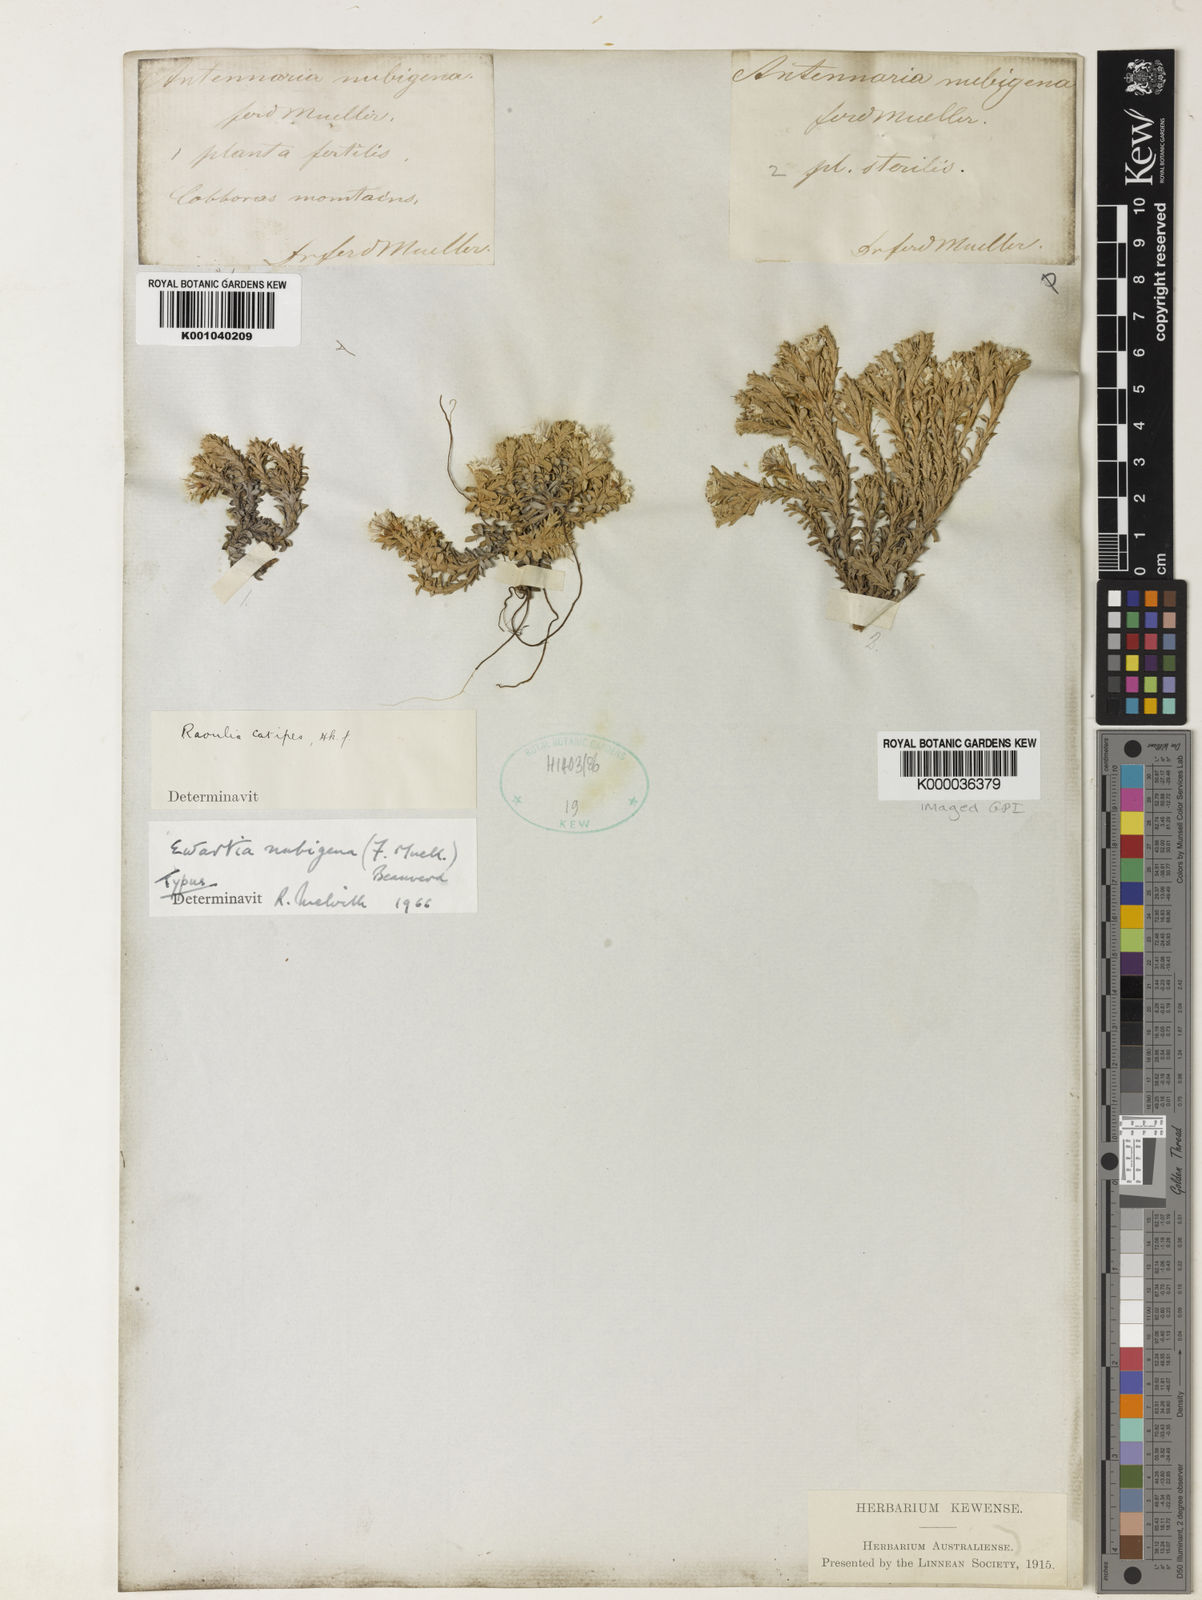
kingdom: Plantae
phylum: Tracheophyta
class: Magnoliopsida
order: Asterales
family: Asteraceae
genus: Ewartia
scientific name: Ewartia nubigena
